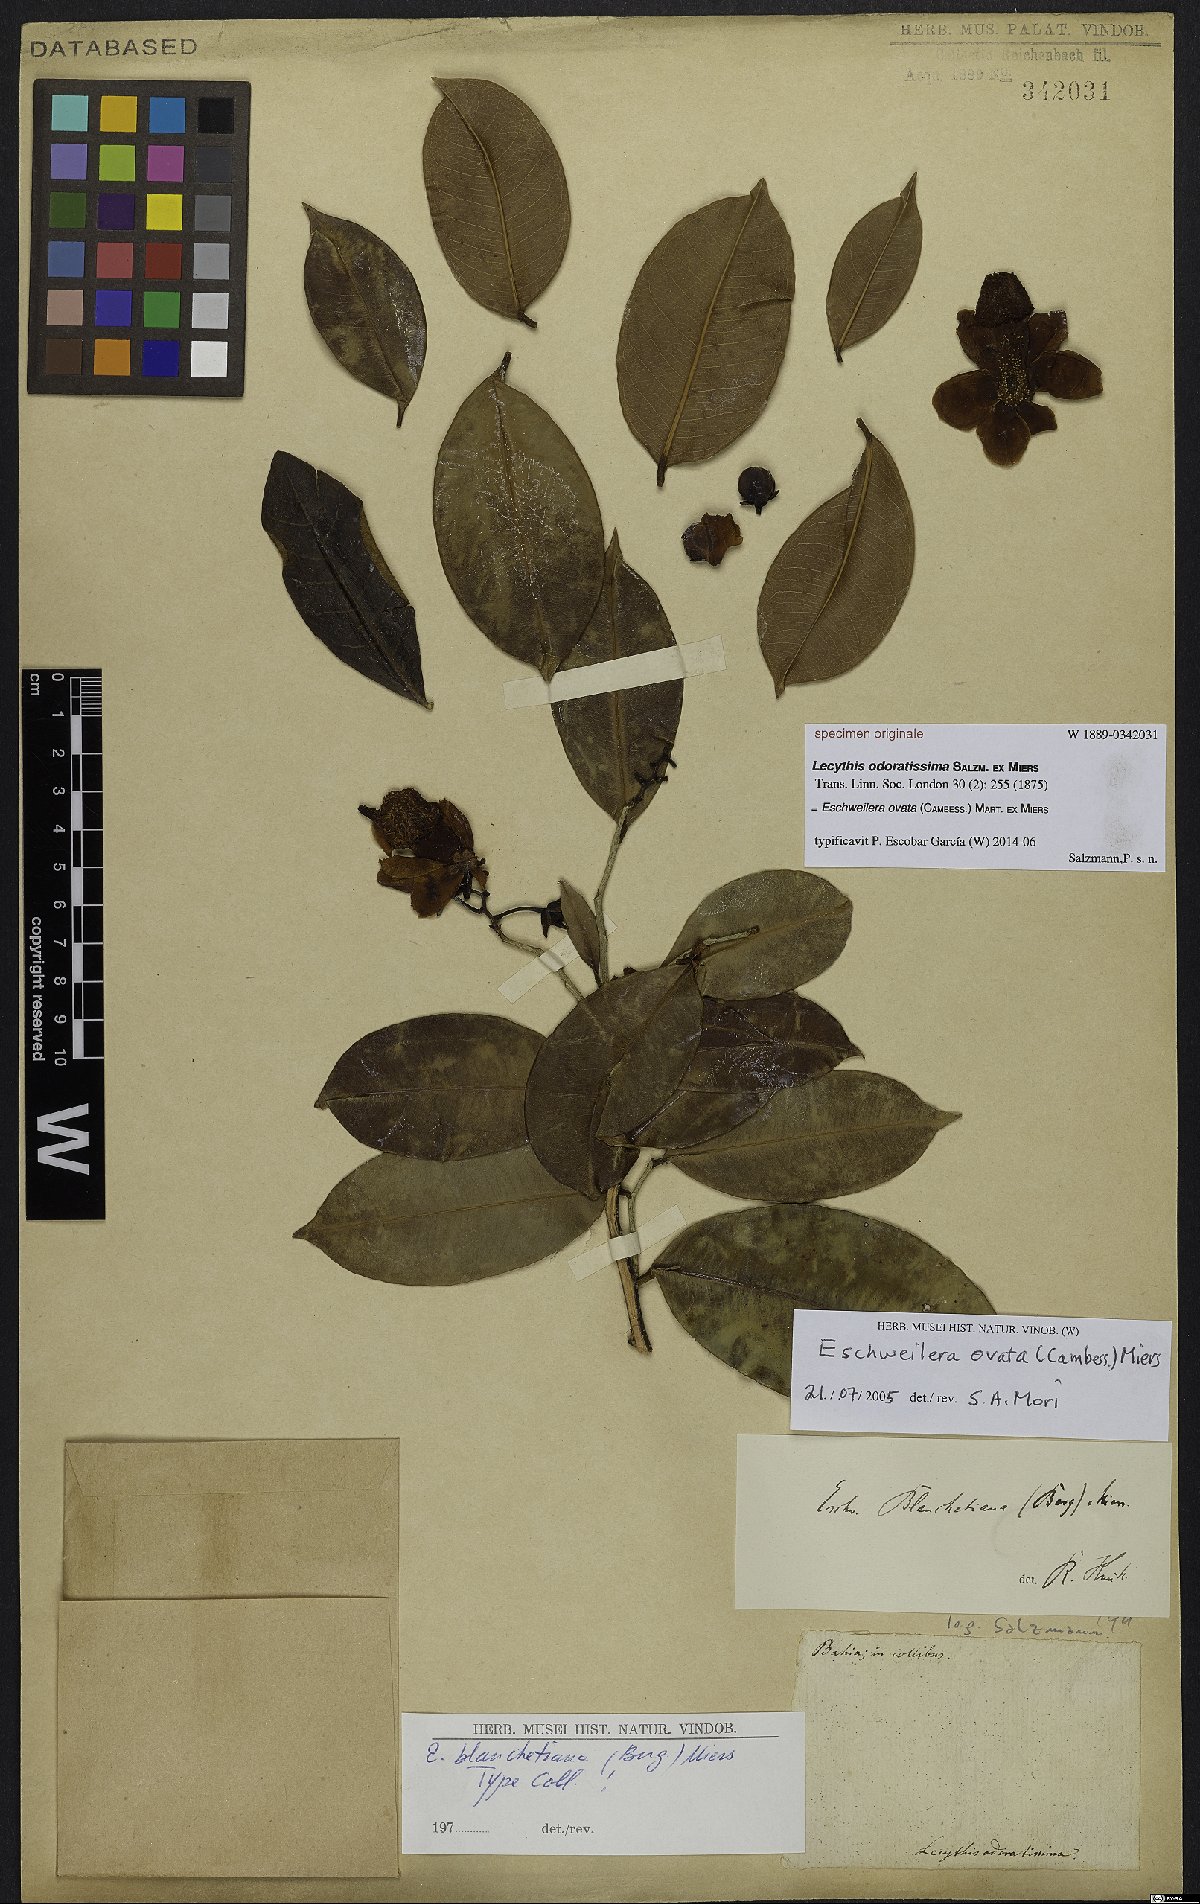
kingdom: Plantae
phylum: Tracheophyta
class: Magnoliopsida
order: Ericales
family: Lecythidaceae
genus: Eschweilera
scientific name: Eschweilera ovata
